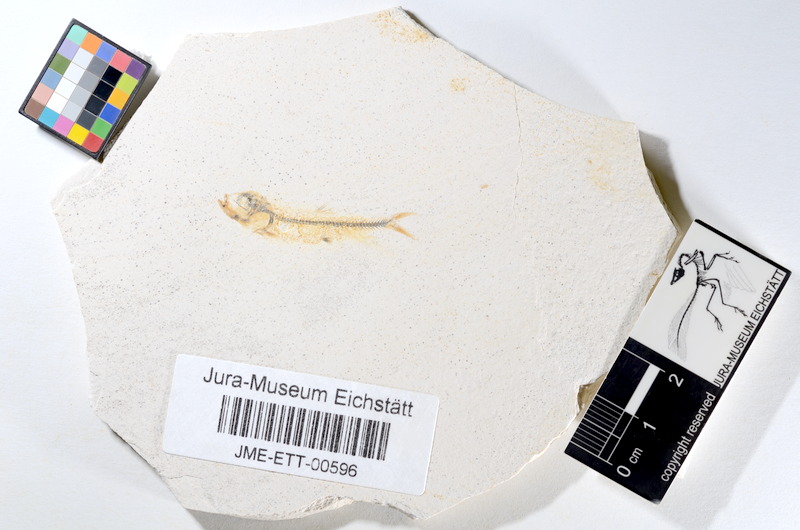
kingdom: Animalia
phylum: Chordata
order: Salmoniformes
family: Orthogonikleithridae
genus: Orthogonikleithrus
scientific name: Orthogonikleithrus hoelli
